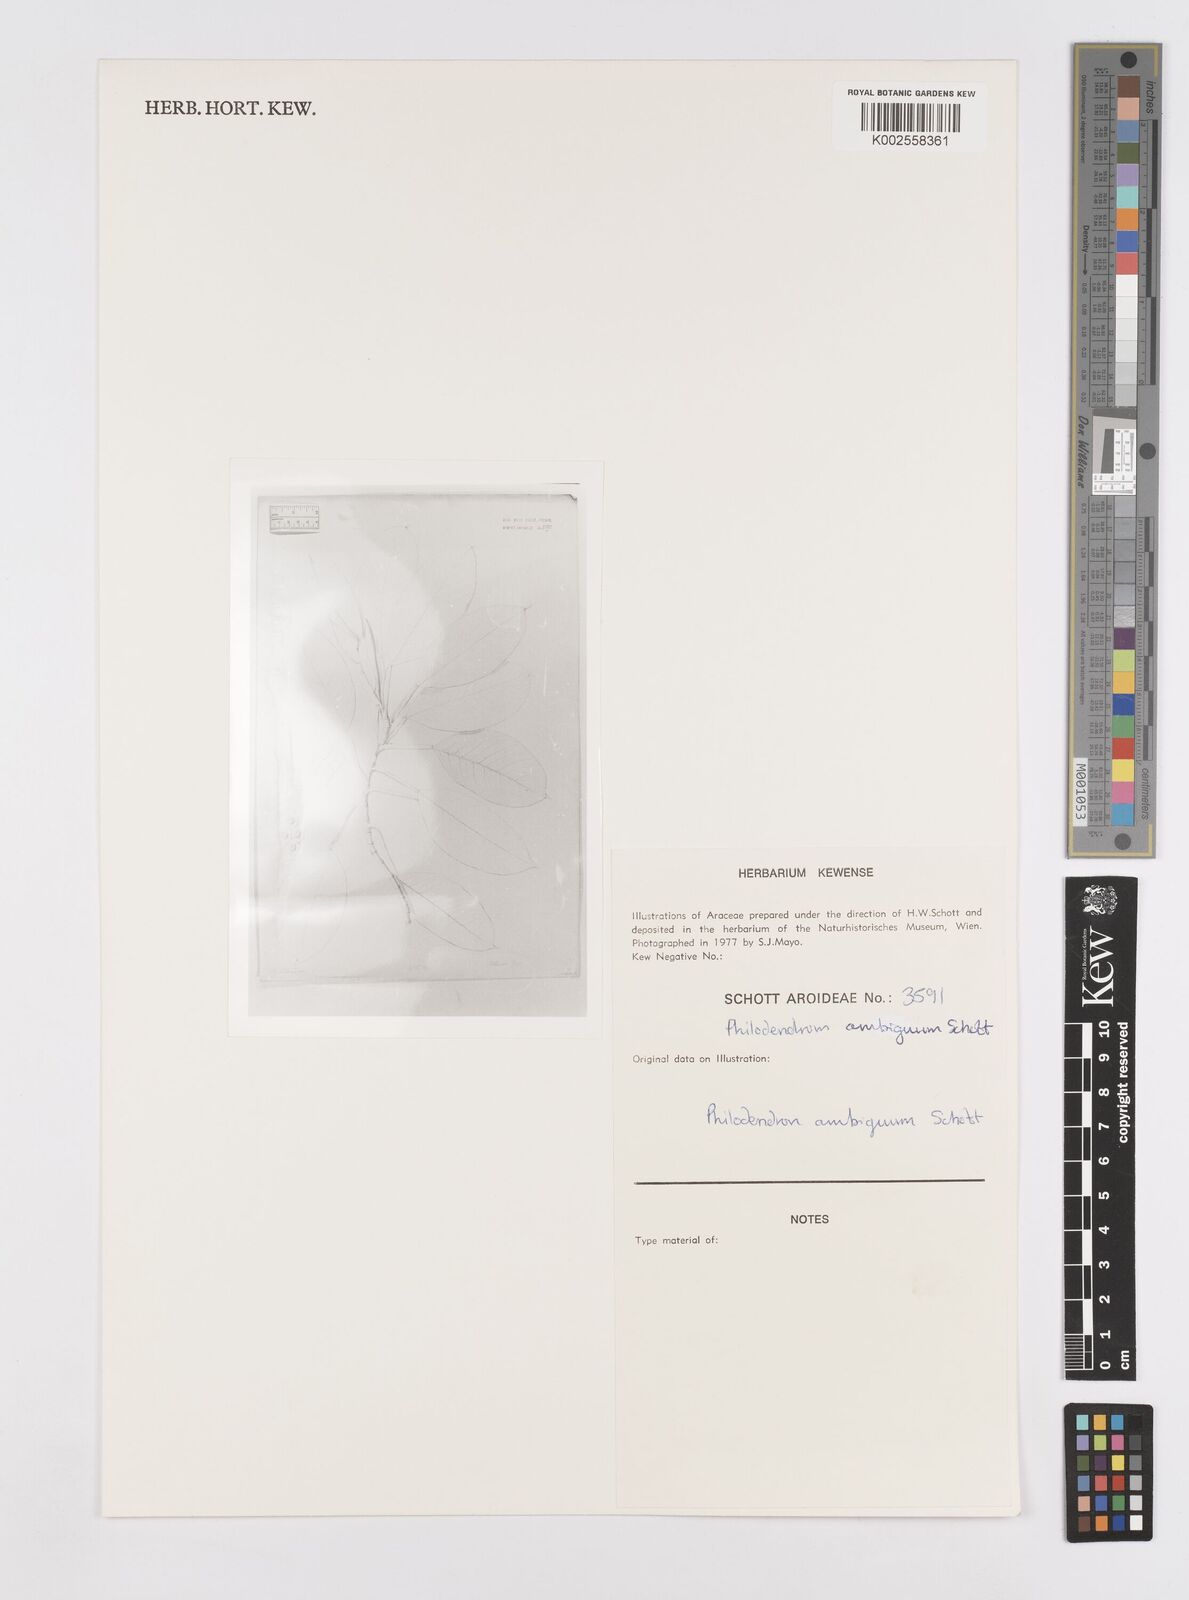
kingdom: Plantae
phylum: Tracheophyta
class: Liliopsida
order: Alismatales
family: Araceae
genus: Philodendron
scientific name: Philodendron propinquum
